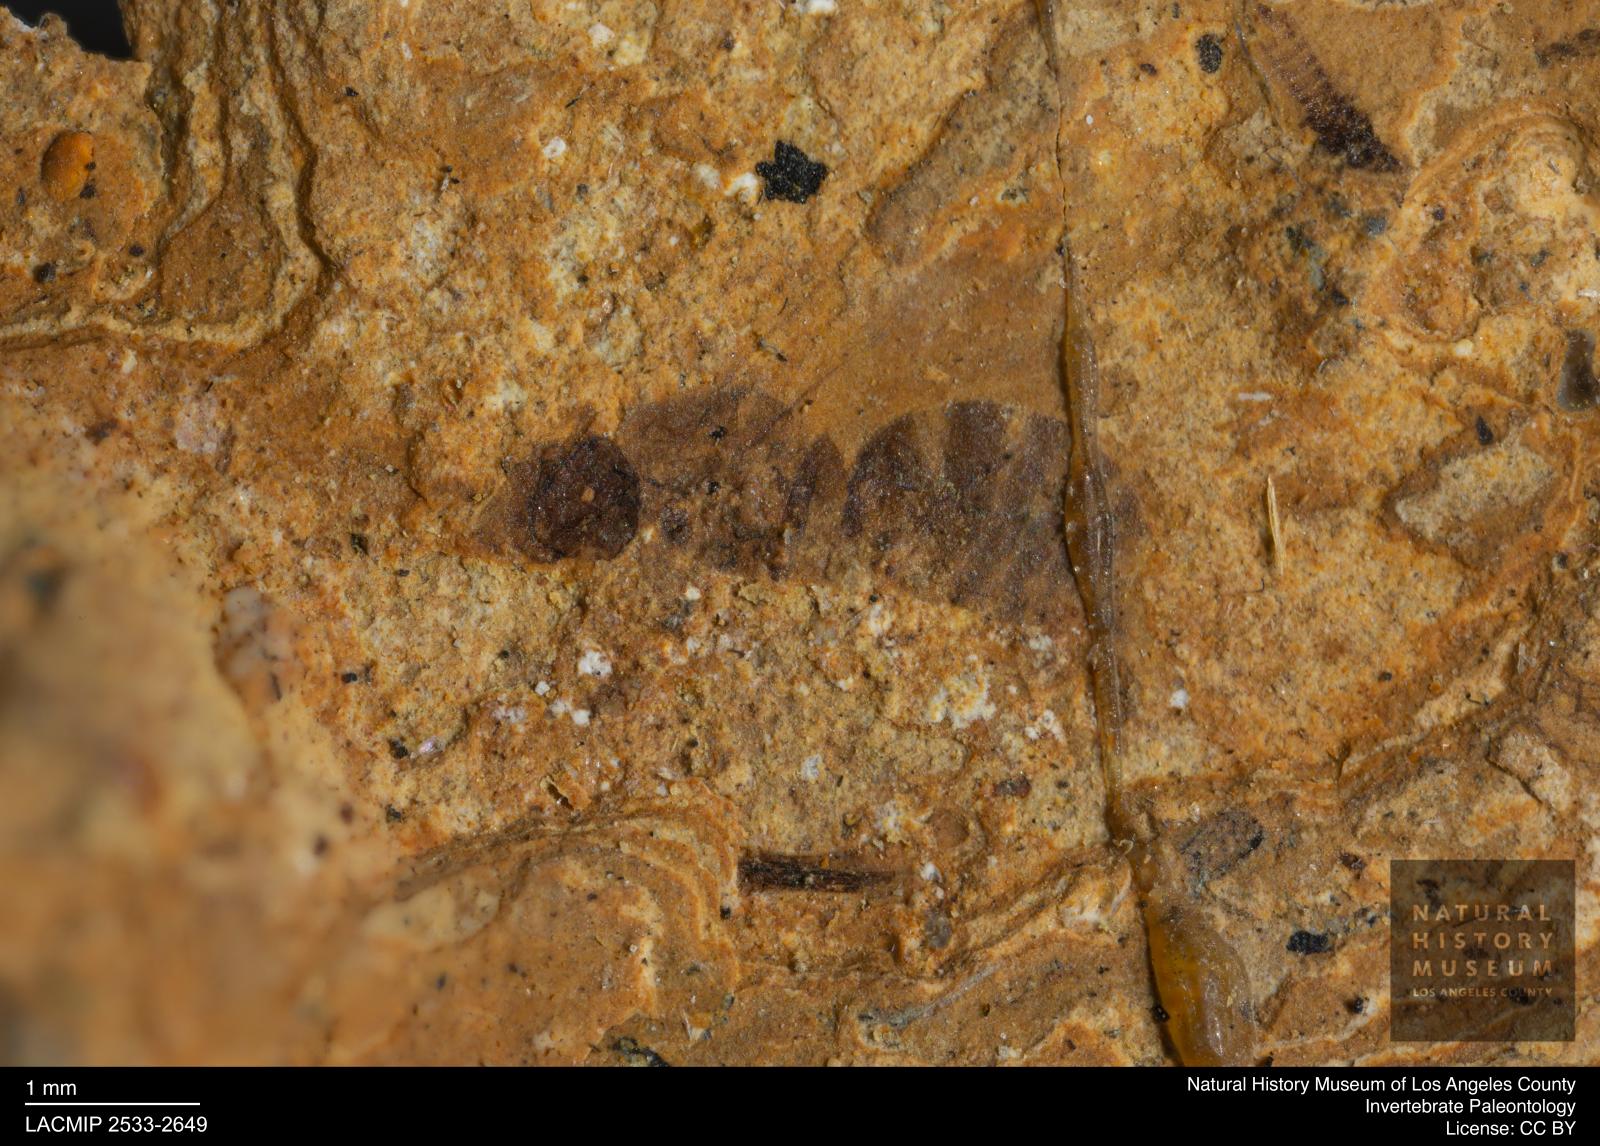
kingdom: Animalia
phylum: Arthropoda
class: Insecta
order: Hymenoptera
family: Formicidae
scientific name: Formicidae
